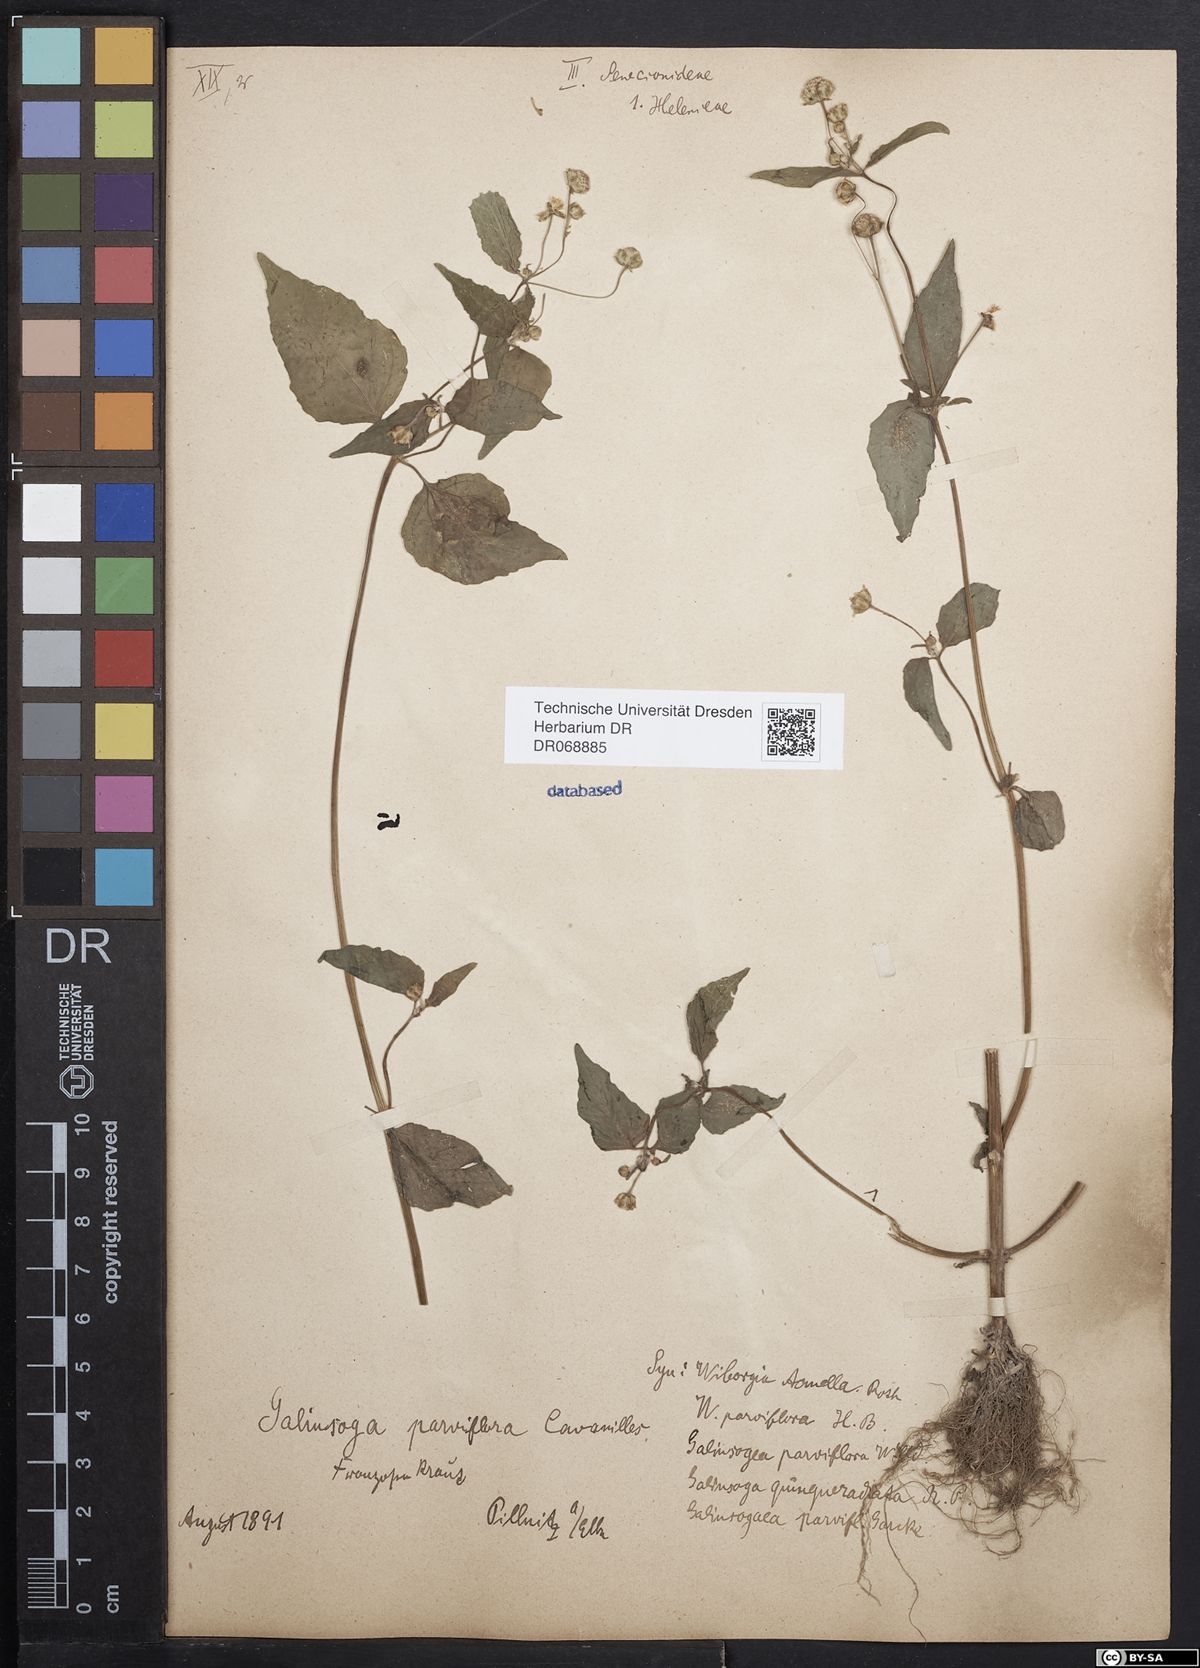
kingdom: Plantae
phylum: Tracheophyta
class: Magnoliopsida
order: Asterales
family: Asteraceae
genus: Galinsoga
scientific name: Galinsoga parviflora
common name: Gallant soldier
